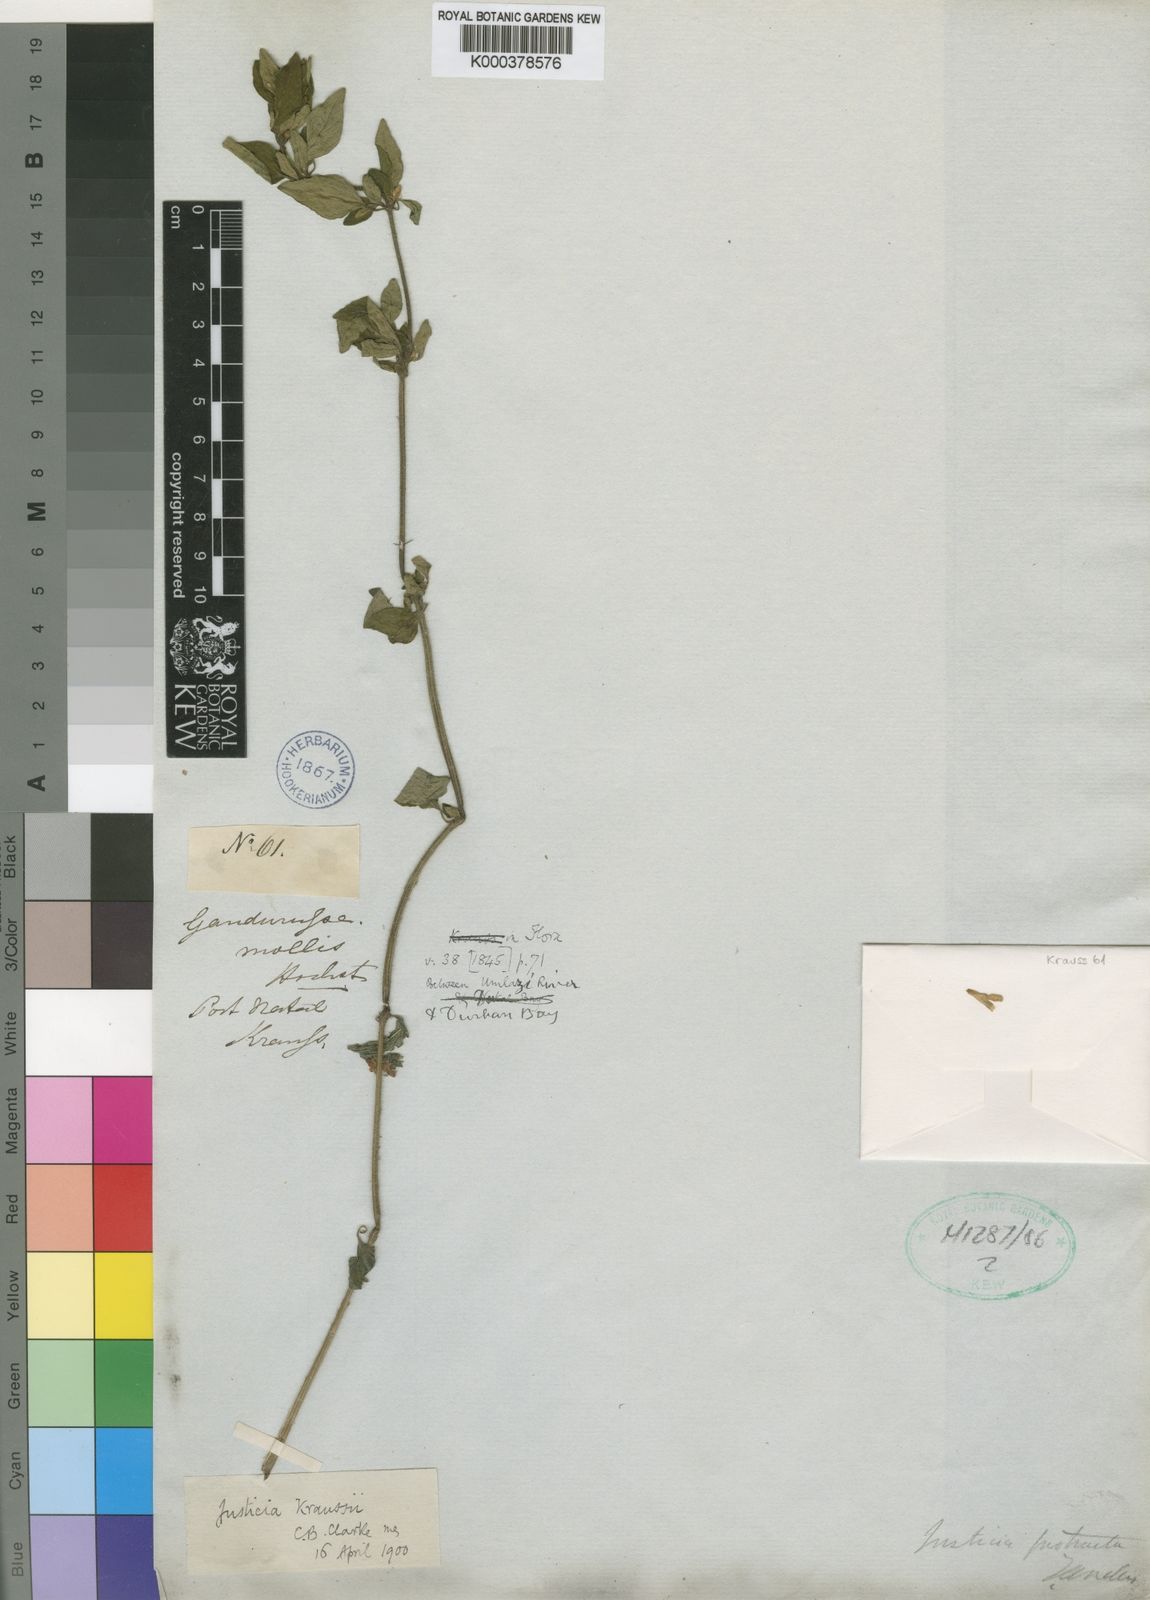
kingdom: Plantae
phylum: Tracheophyta
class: Magnoliopsida
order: Lamiales
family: Acanthaceae
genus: Justicia
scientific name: Justicia protracta
